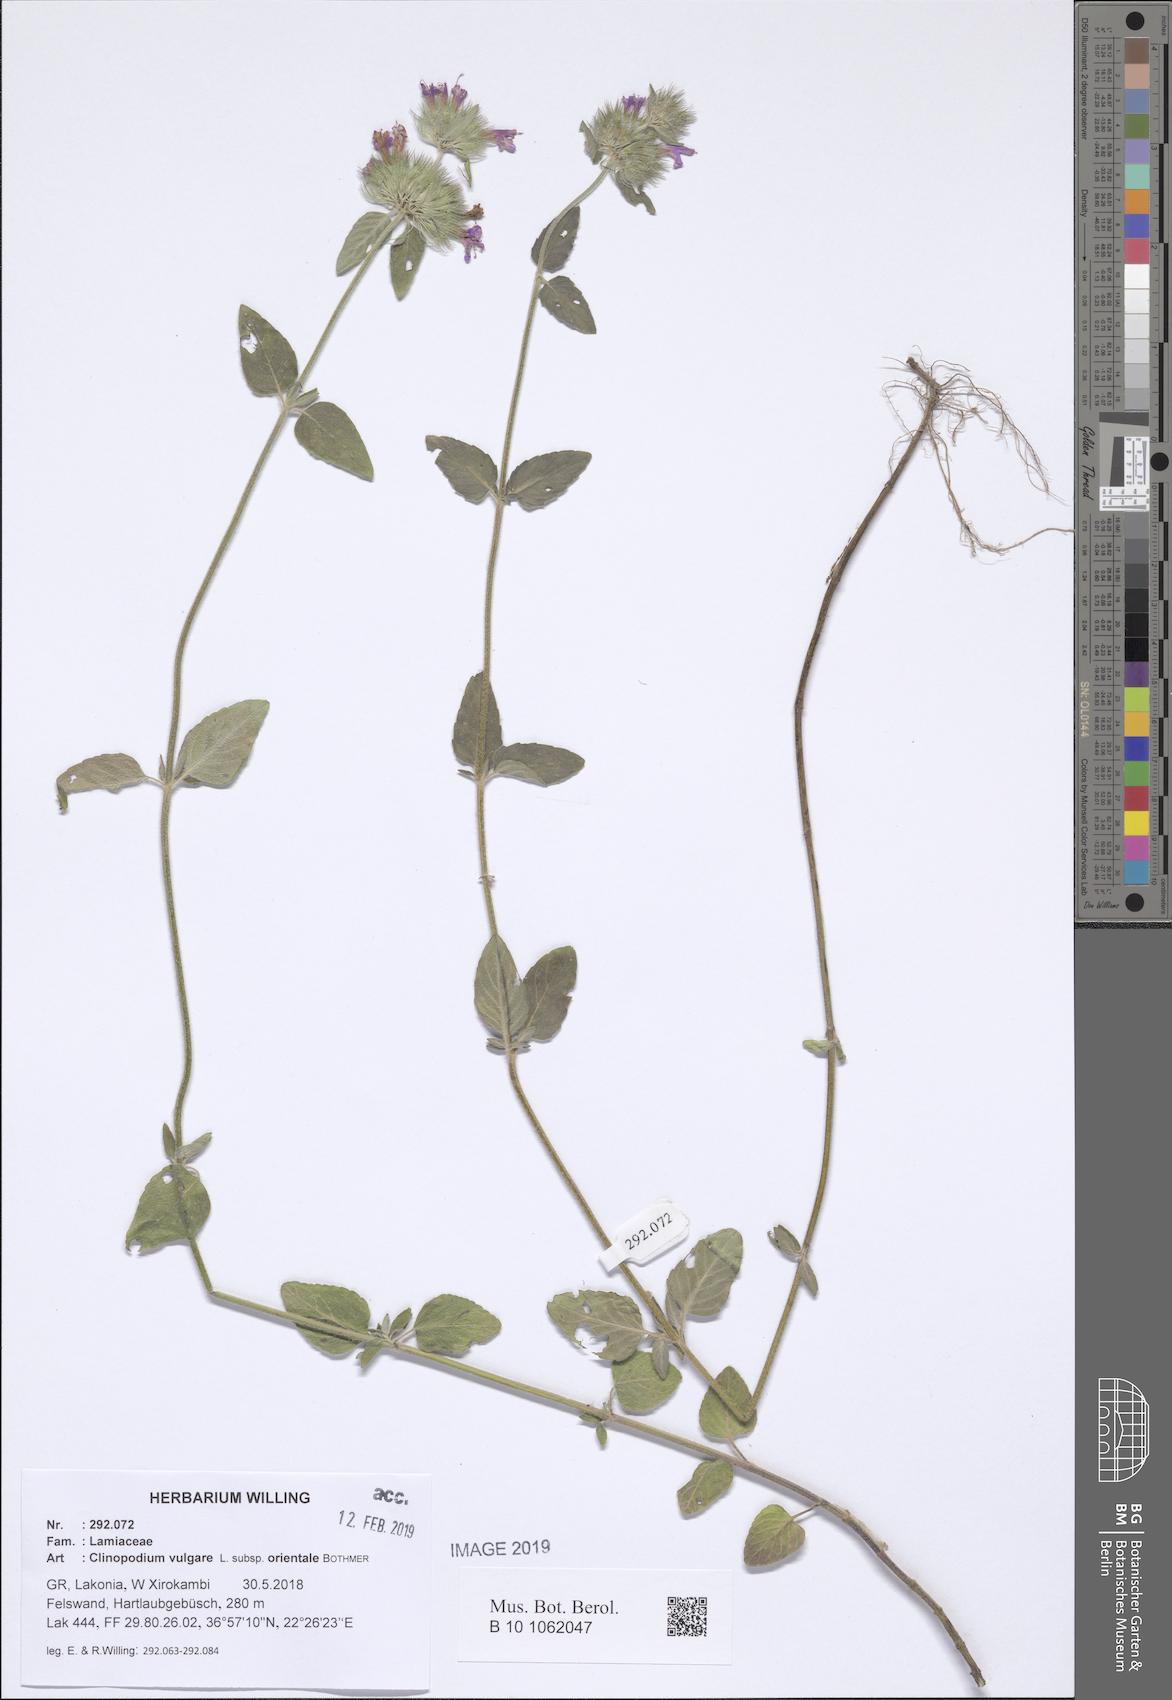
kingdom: Plantae
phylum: Tracheophyta
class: Magnoliopsida
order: Lamiales
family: Lamiaceae
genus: Clinopodium
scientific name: Clinopodium vulgare
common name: Wild basil
